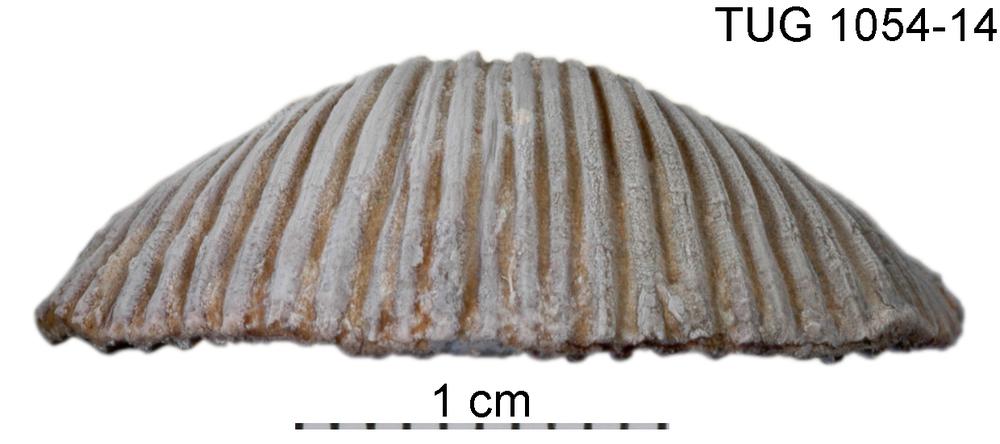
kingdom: Animalia
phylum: Brachiopoda
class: Rhynchonellata
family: Orthidae
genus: Cyrtonotella
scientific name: Cyrtonotella Orthis kuckersiana
